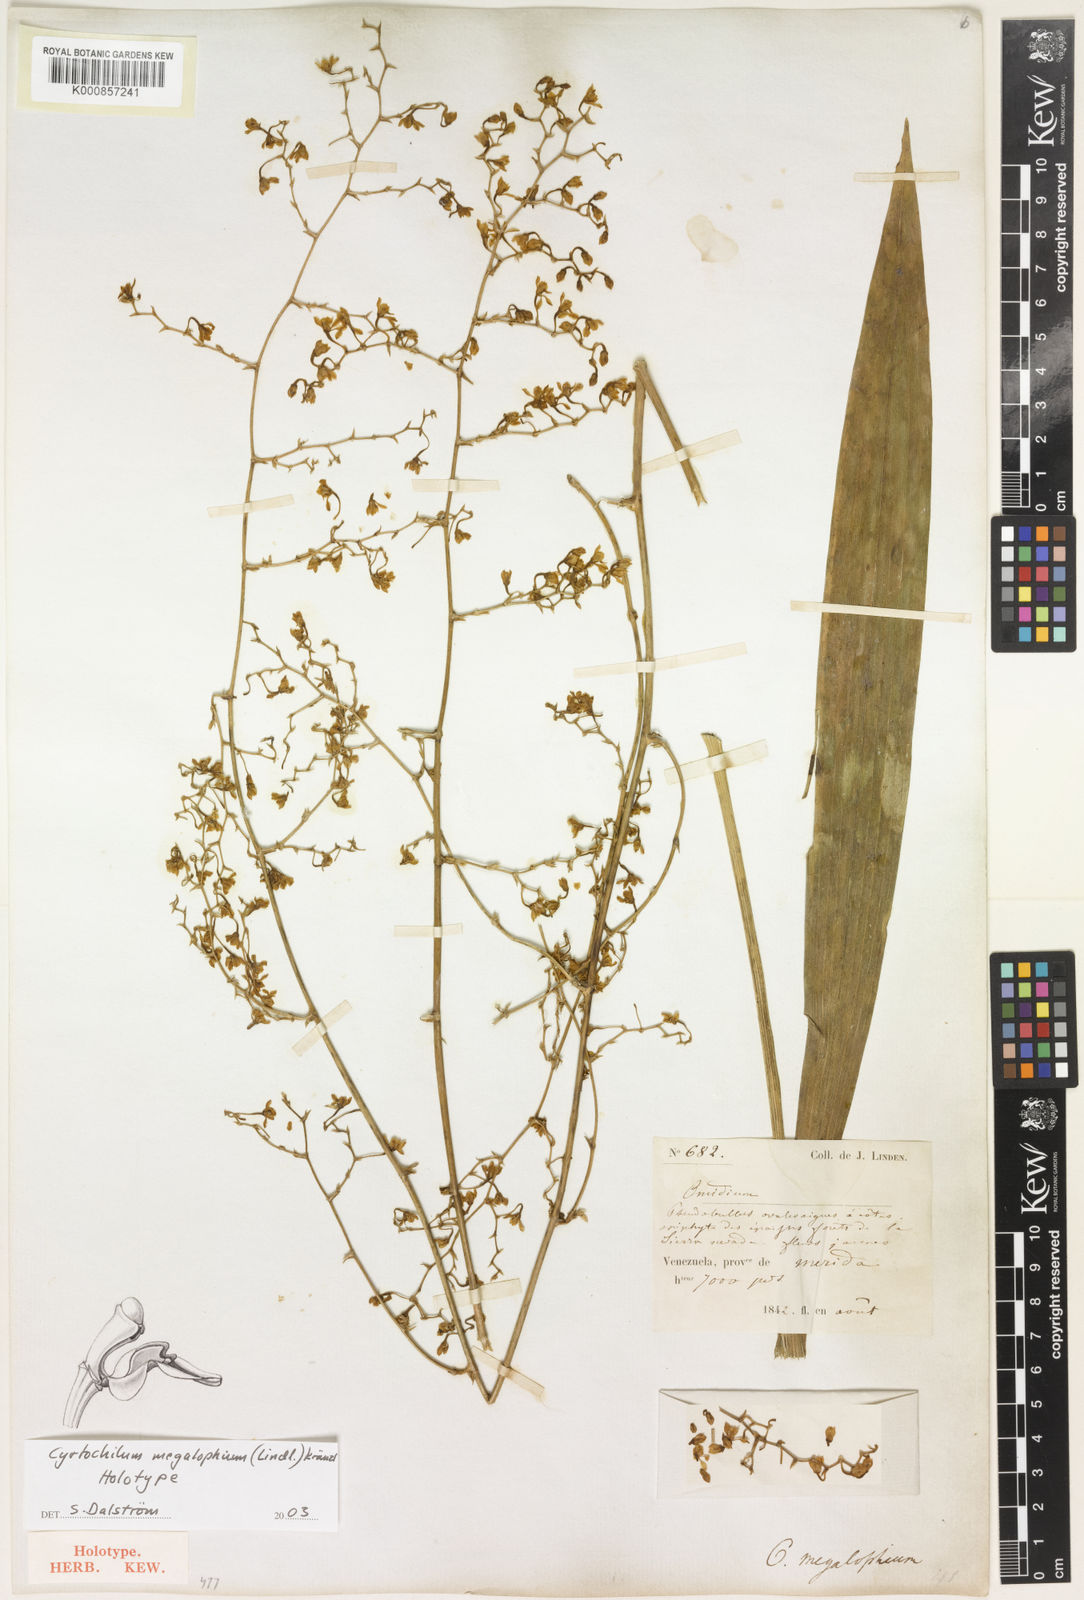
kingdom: Plantae
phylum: Tracheophyta
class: Liliopsida
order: Asparagales
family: Orchidaceae
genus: Cyrtochilum
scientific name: Cyrtochilum megalophium
